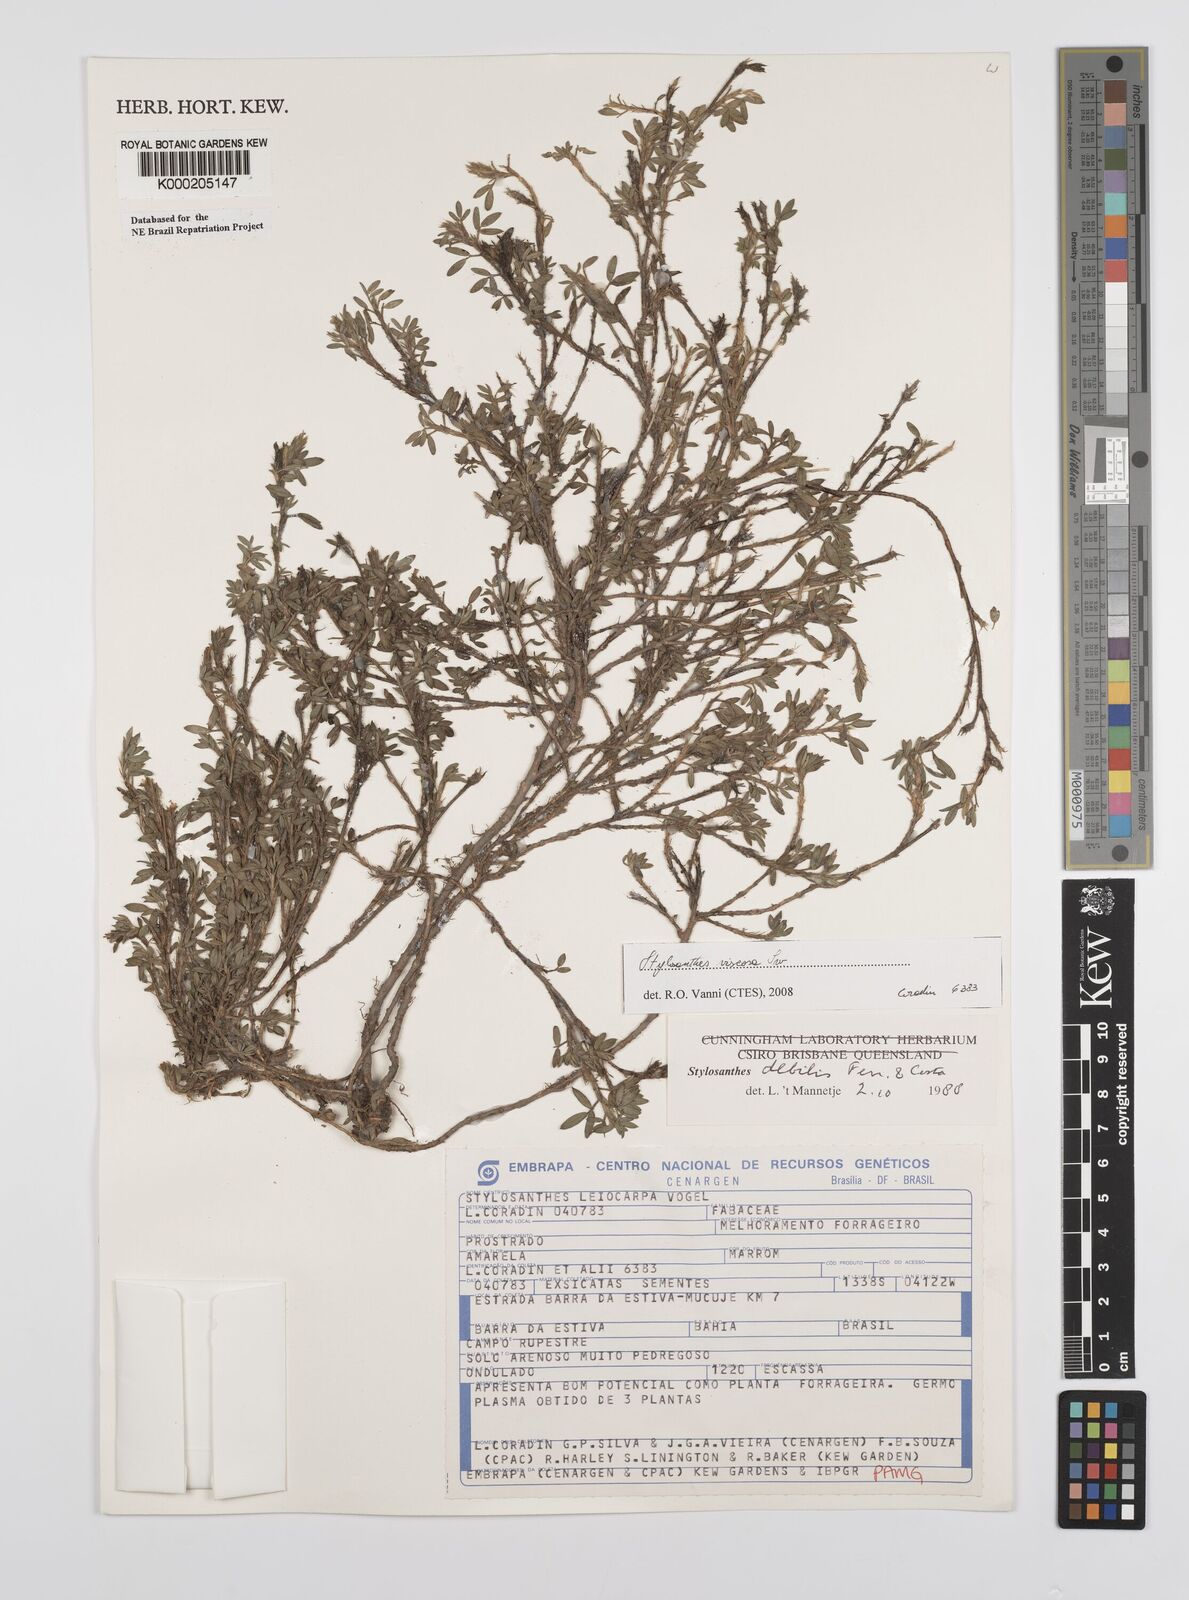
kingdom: Plantae
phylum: Tracheophyta
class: Magnoliopsida
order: Fabales
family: Fabaceae
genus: Stylosanthes
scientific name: Stylosanthes viscosa
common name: Viscid pencil-flower
